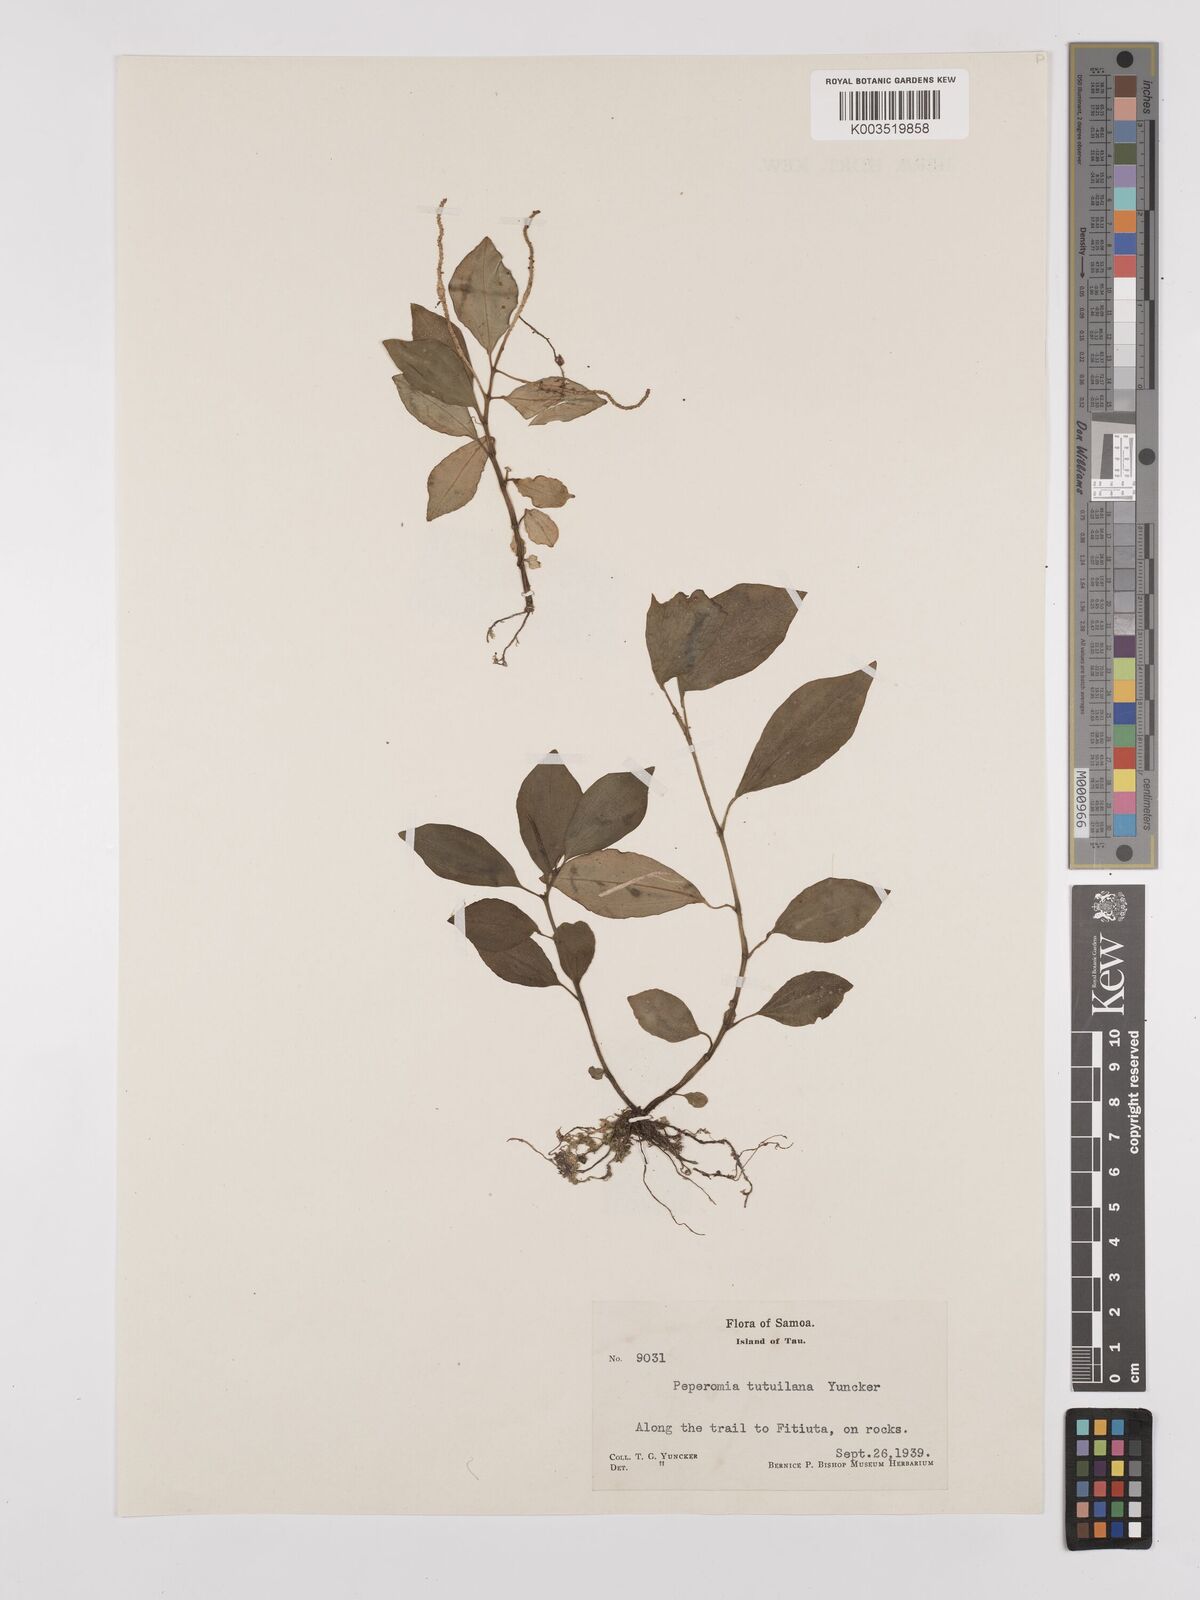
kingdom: Plantae
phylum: Tracheophyta
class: Magnoliopsida
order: Piperales
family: Piperaceae
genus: Peperomia
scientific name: Peperomia tutuilana
